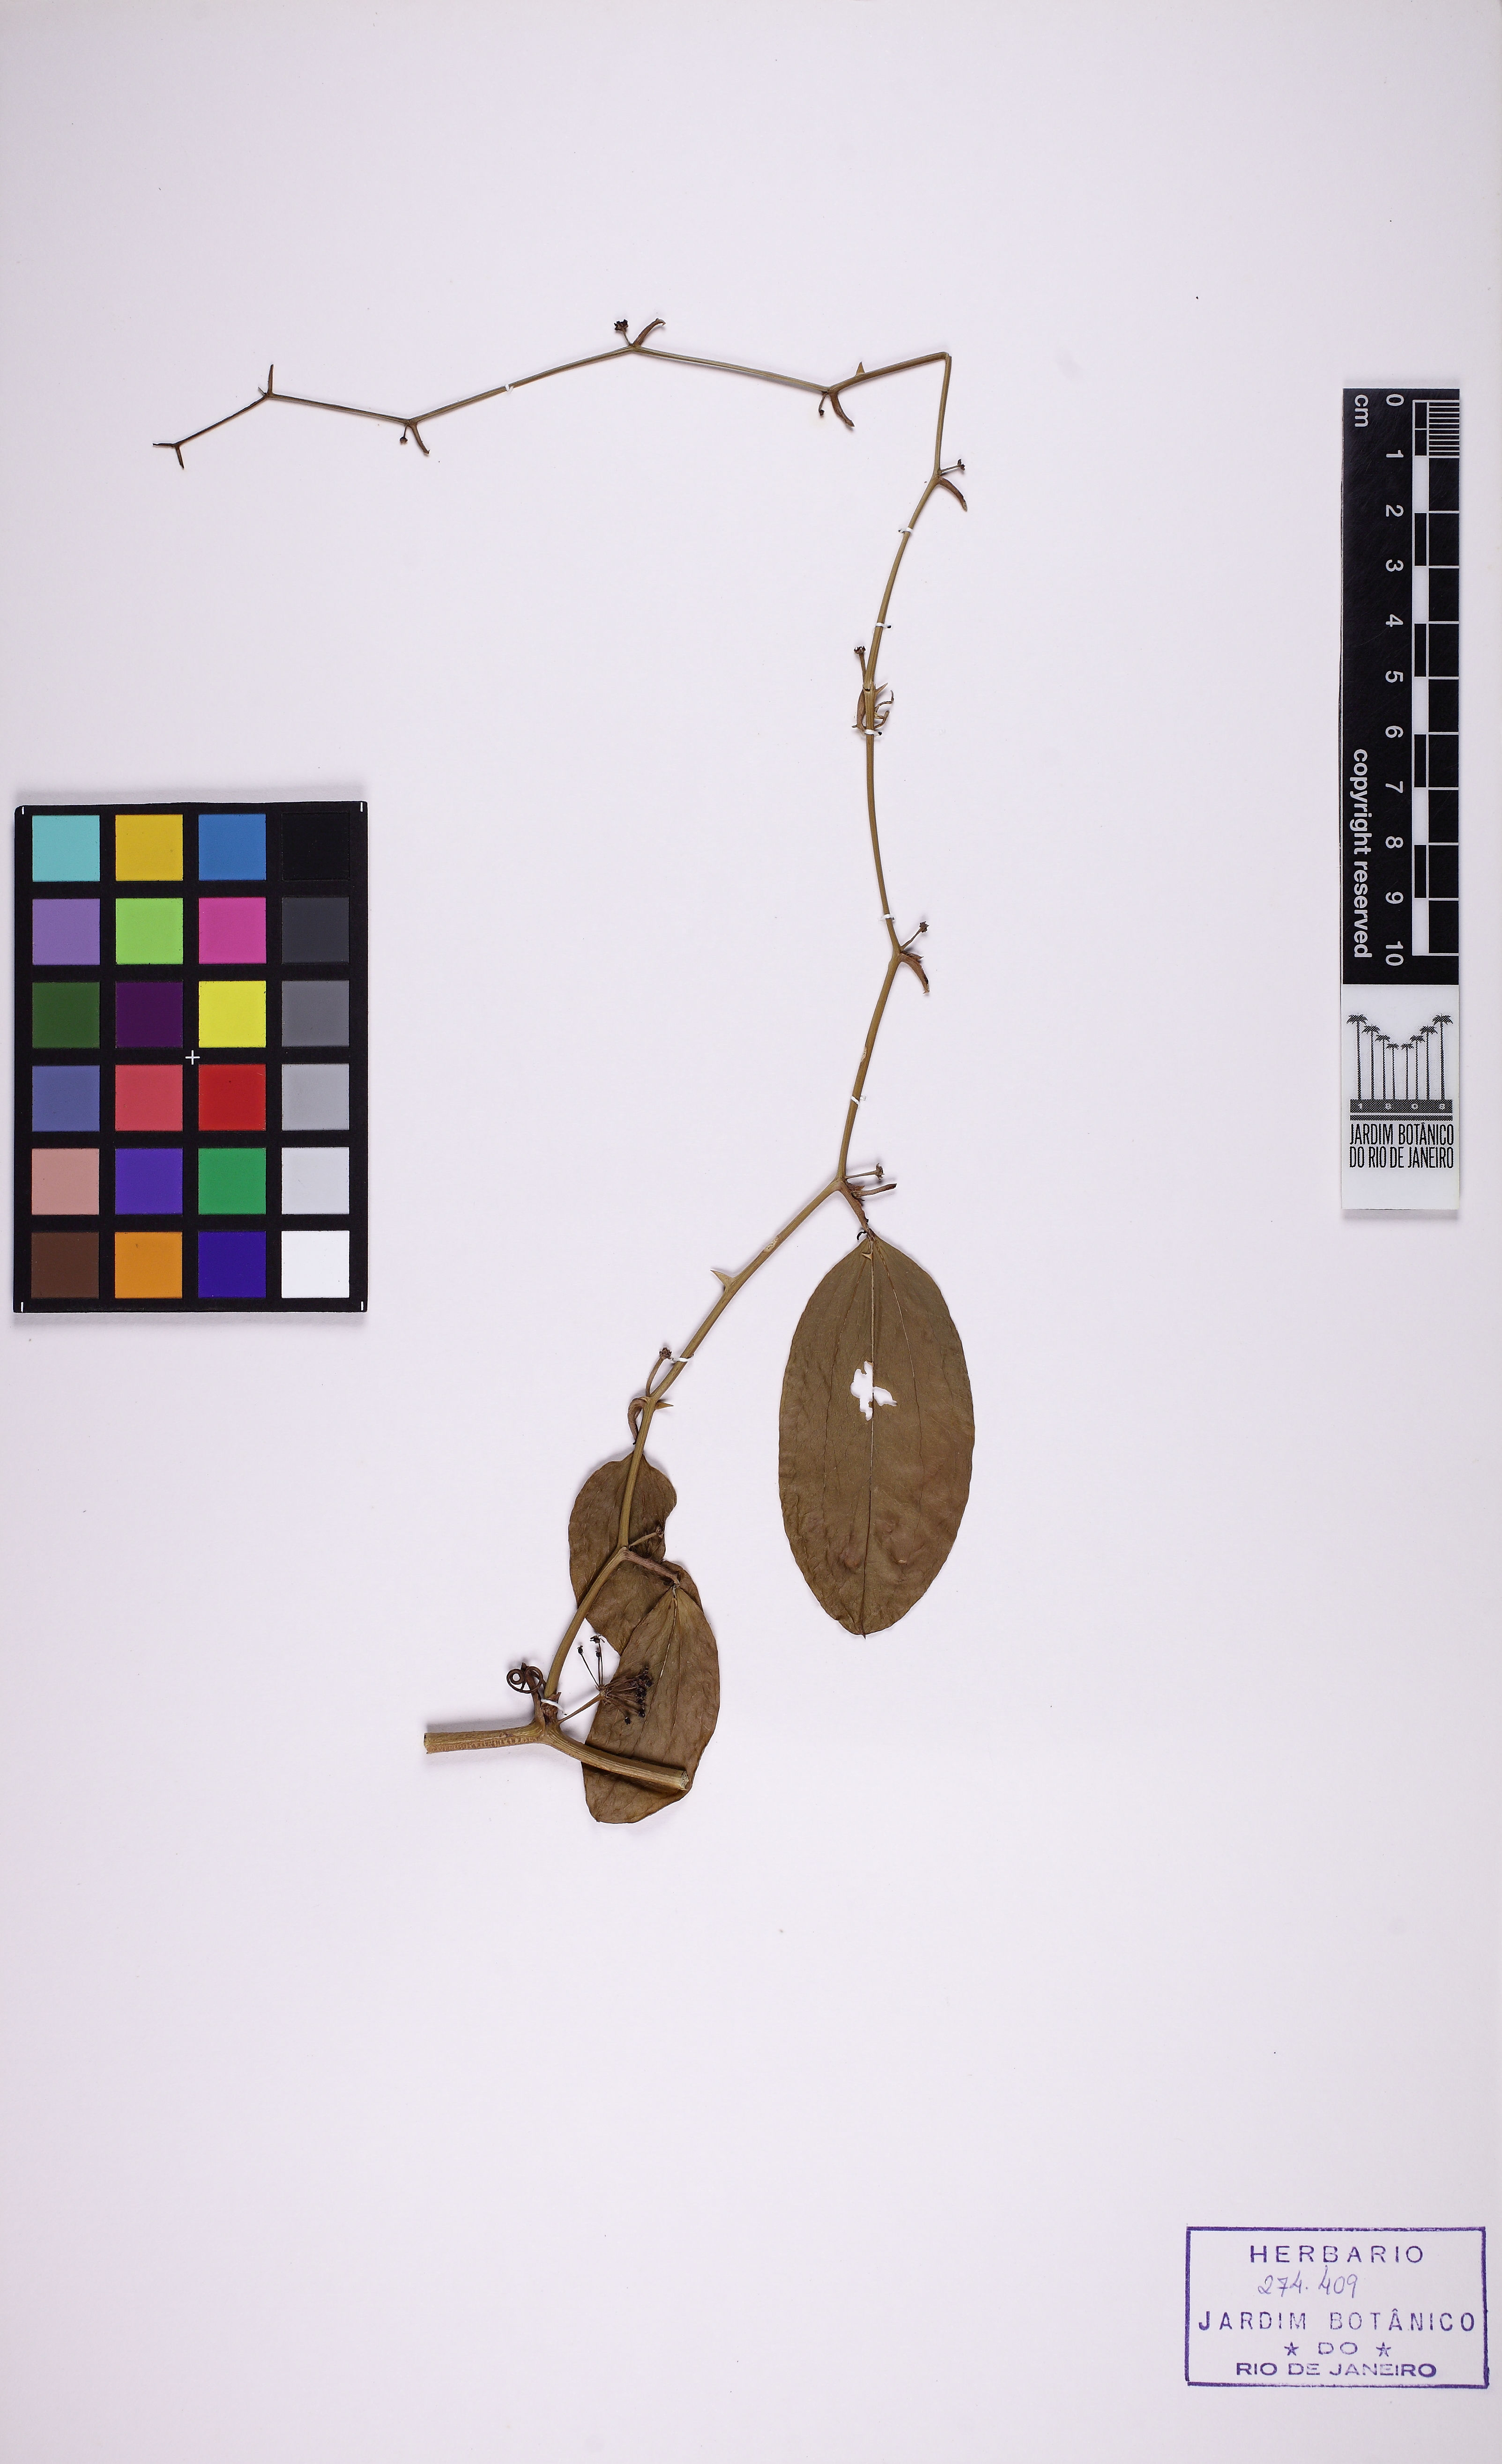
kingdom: Plantae
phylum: Tracheophyta
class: Liliopsida
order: Liliales
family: Smilacaceae
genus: Smilax
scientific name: Smilax brasiliensis
